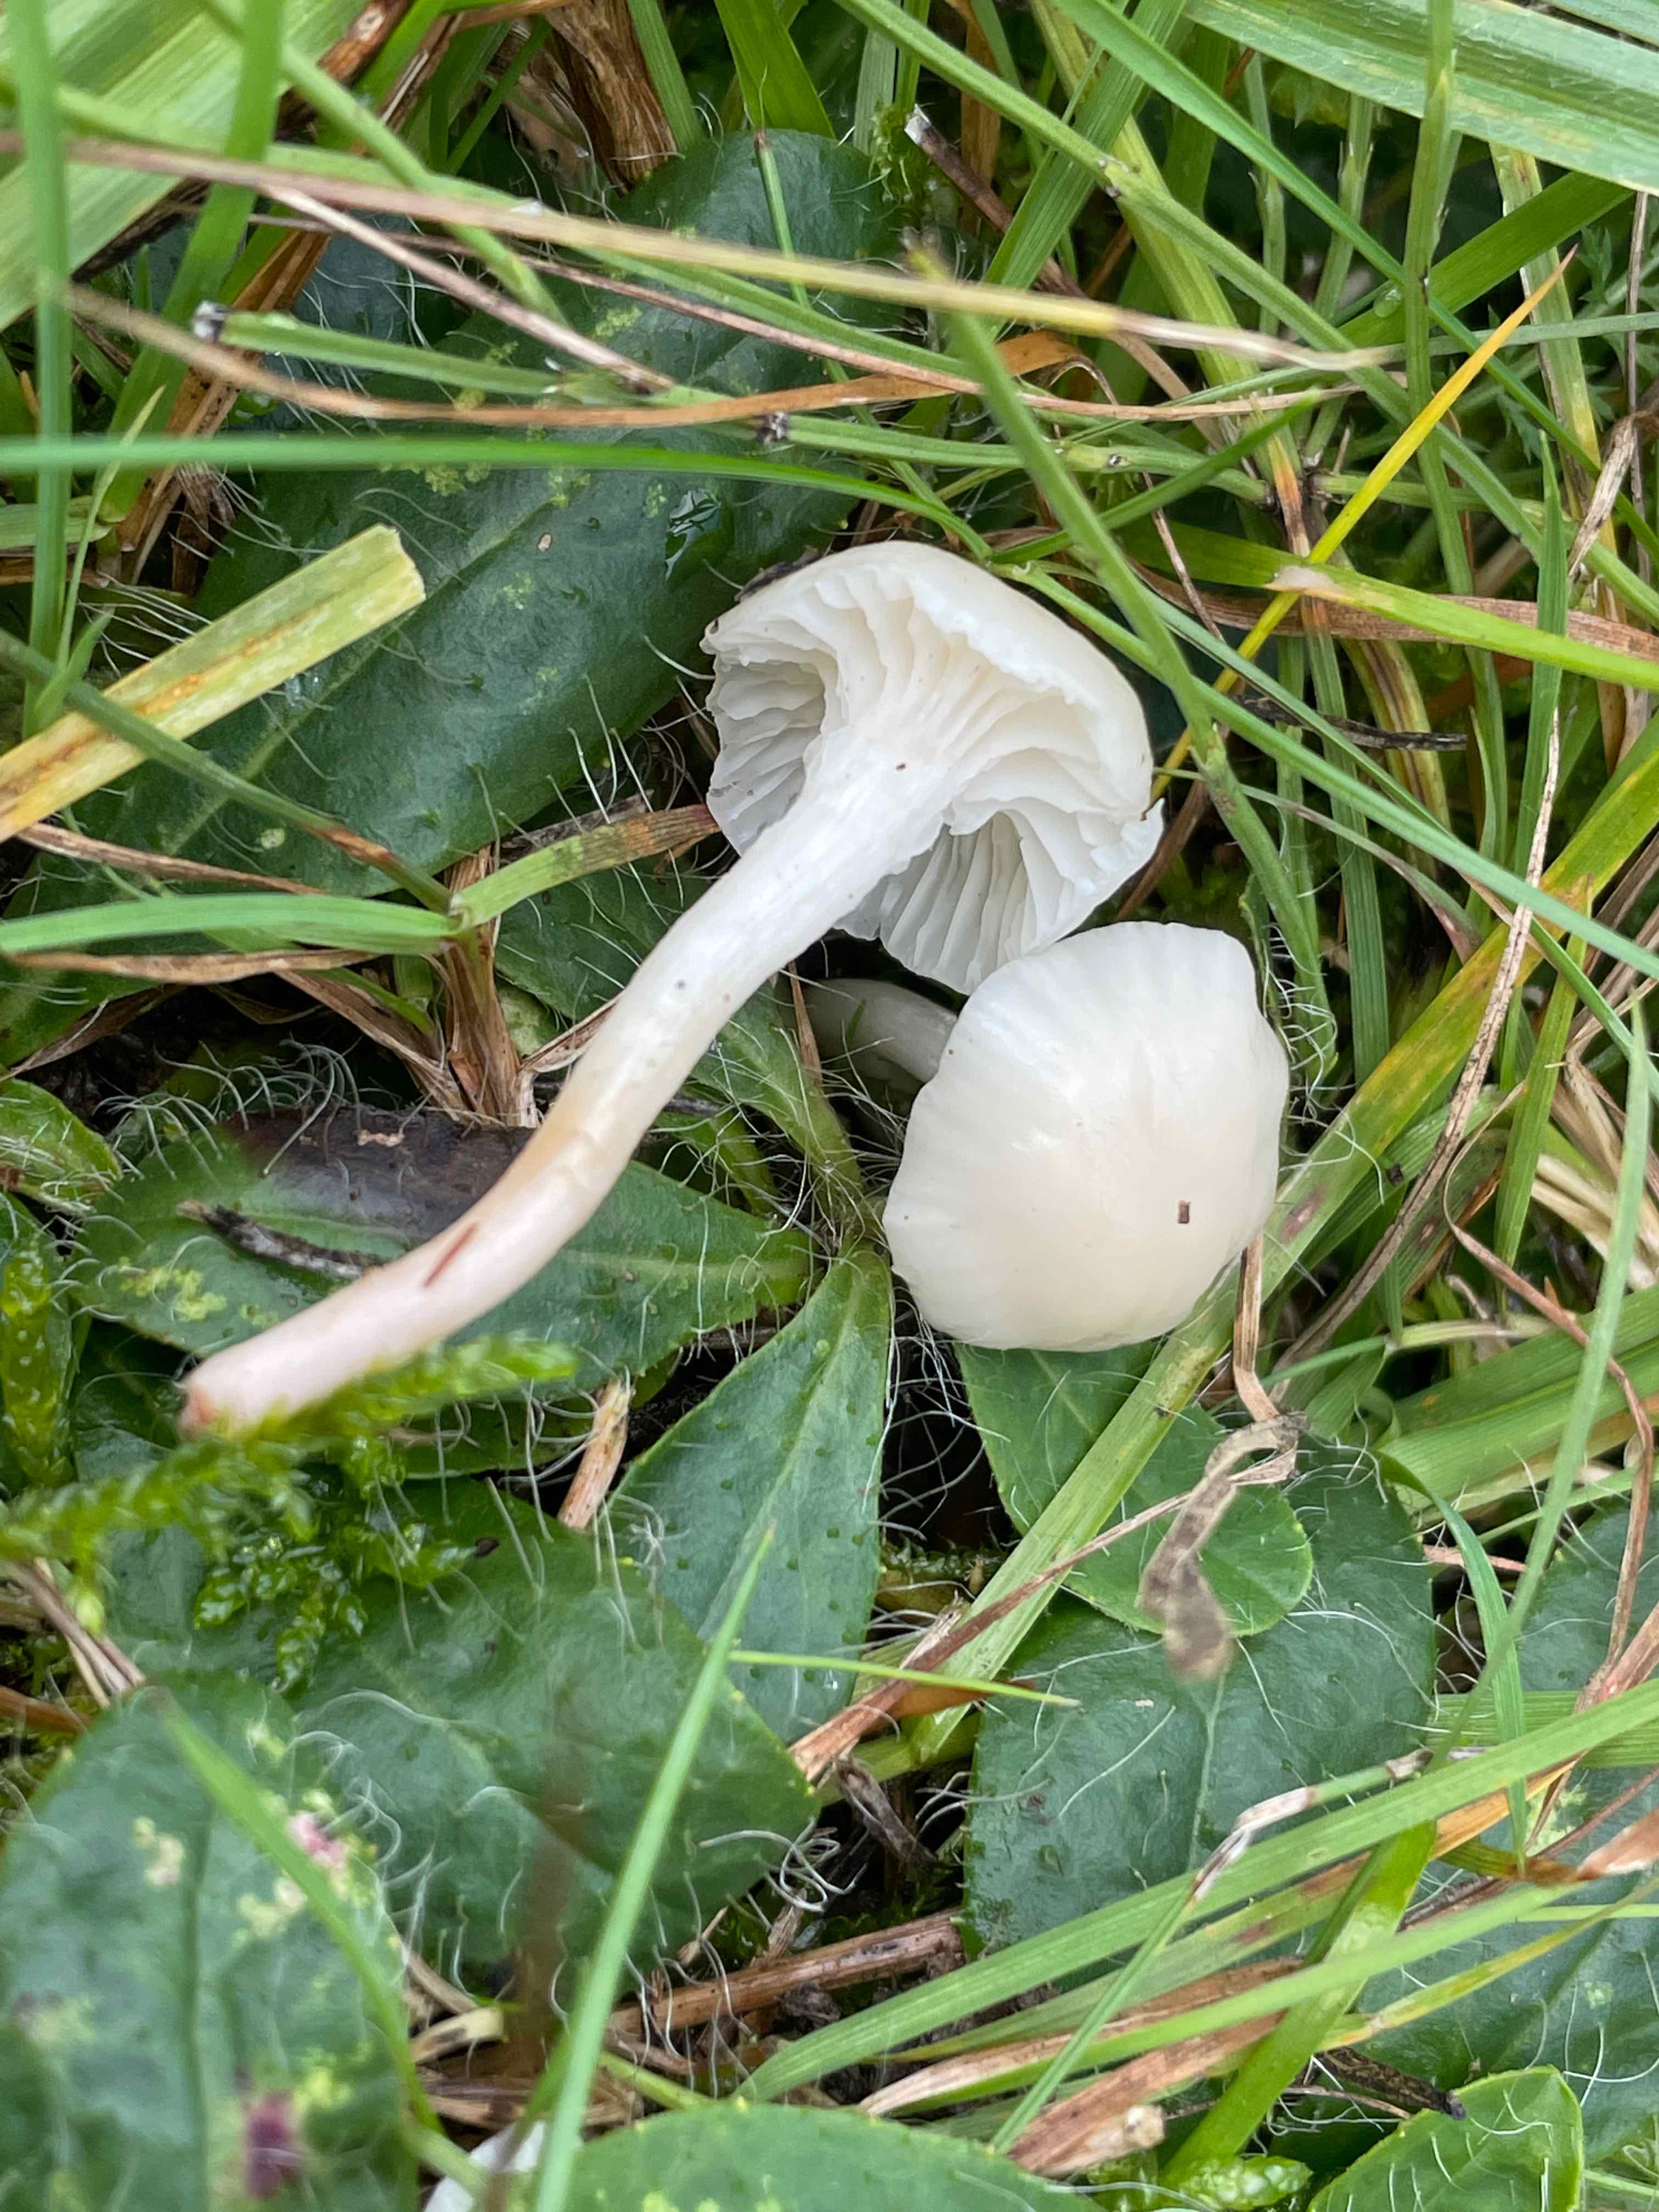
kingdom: Fungi
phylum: Basidiomycota
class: Agaricomycetes
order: Agaricales
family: Hygrophoraceae
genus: Cuphophyllus
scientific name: Cuphophyllus virgineus
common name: snehvid vokshat
